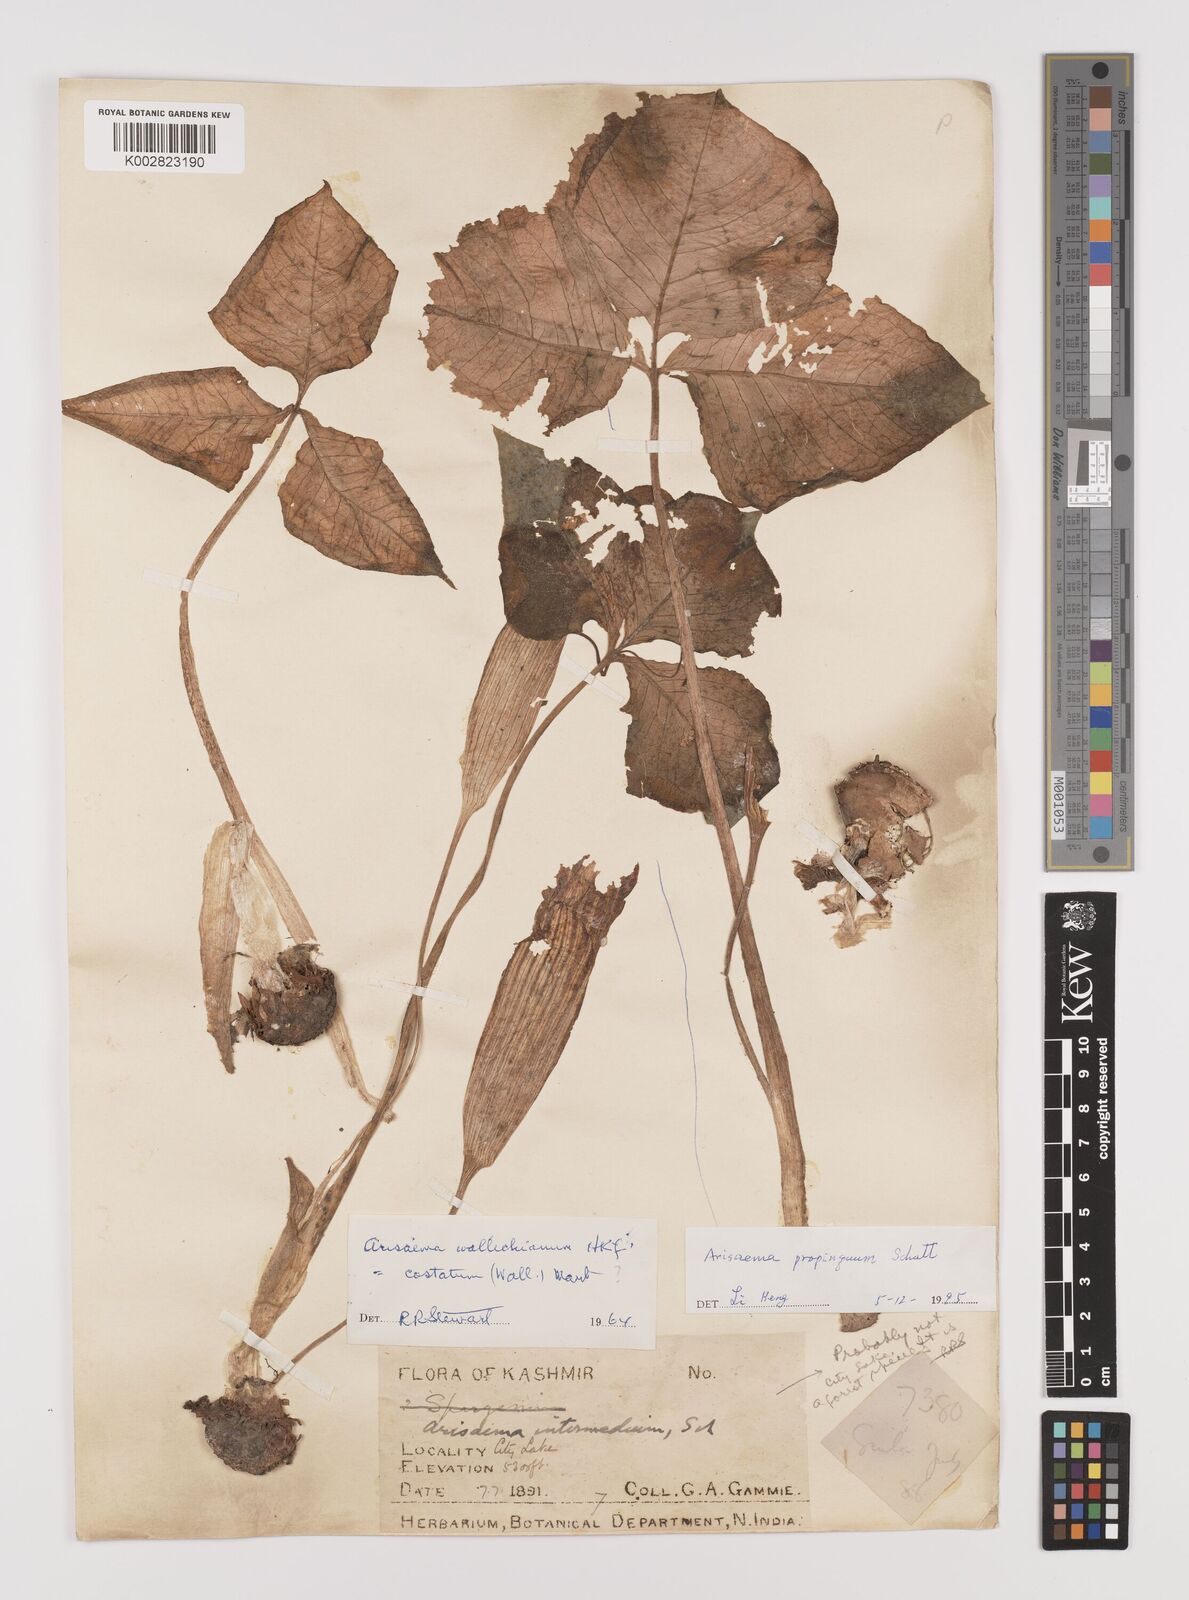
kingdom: Plantae
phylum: Tracheophyta
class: Liliopsida
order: Alismatales
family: Araceae
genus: Arisaema
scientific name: Arisaema propinquum
